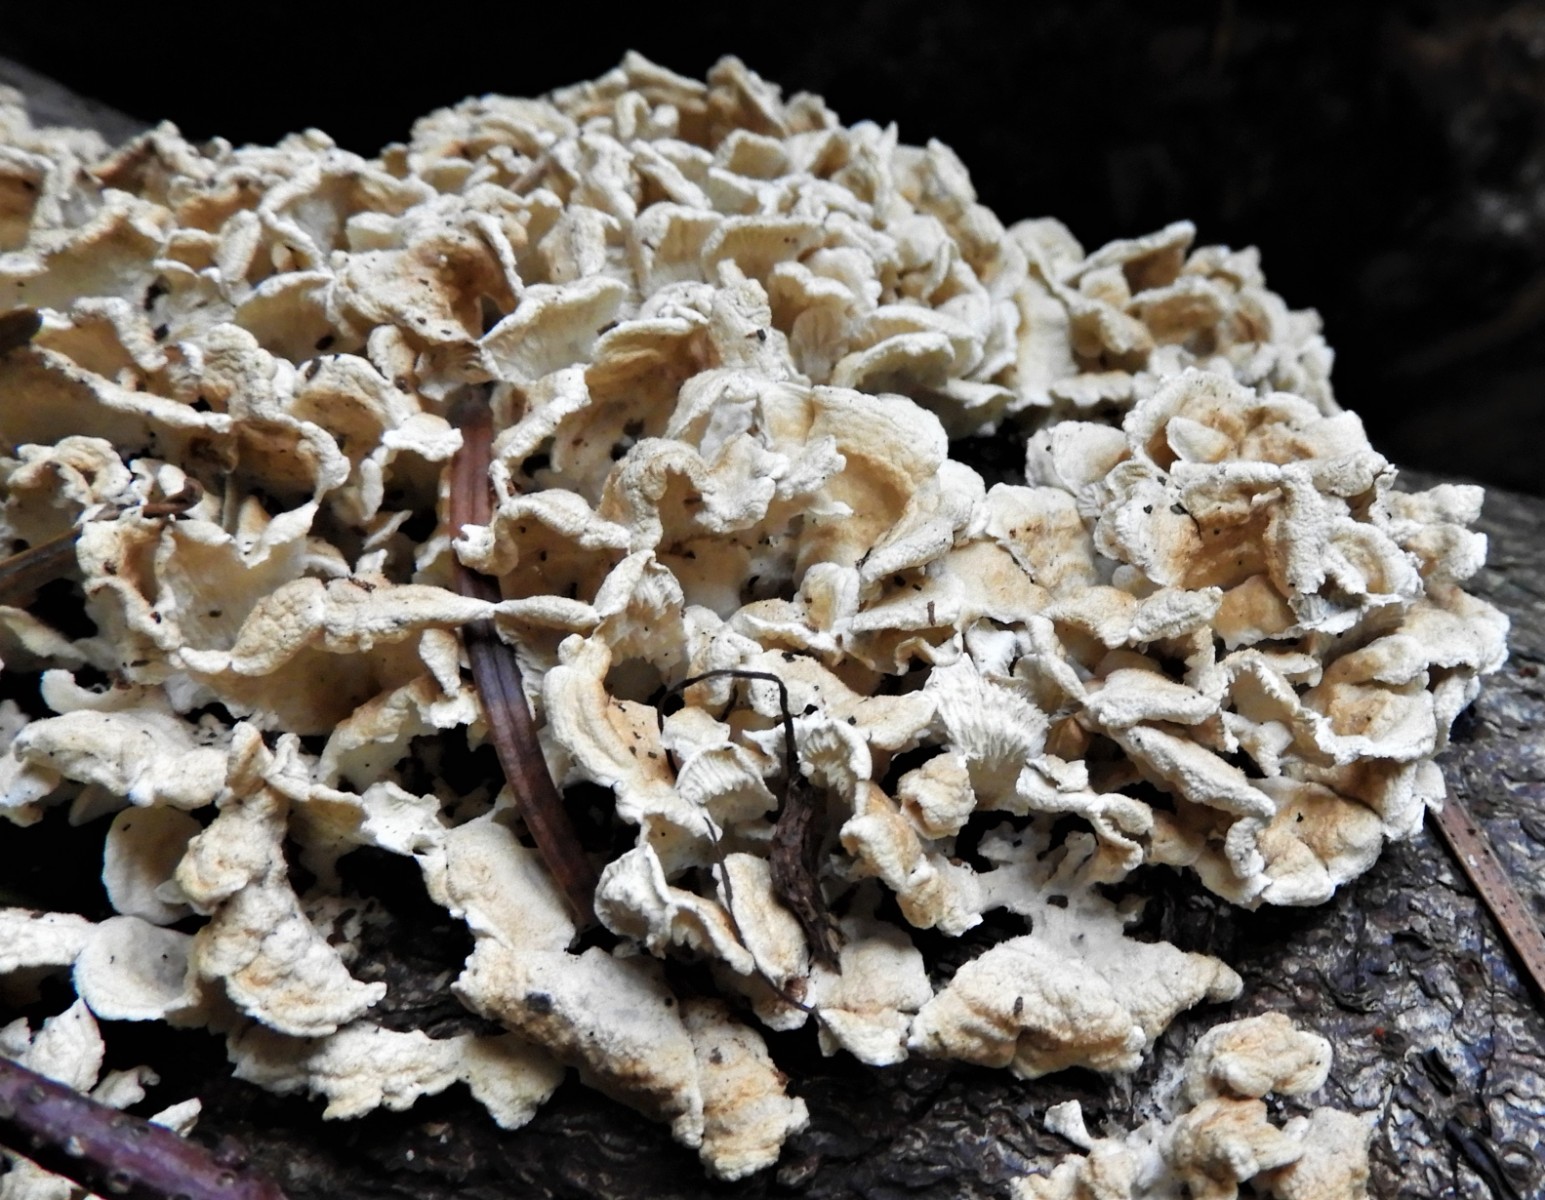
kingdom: Fungi
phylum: Basidiomycota
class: Agaricomycetes
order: Amylocorticiales
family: Amylocorticiaceae
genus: Plicaturopsis
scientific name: Plicaturopsis crispa
